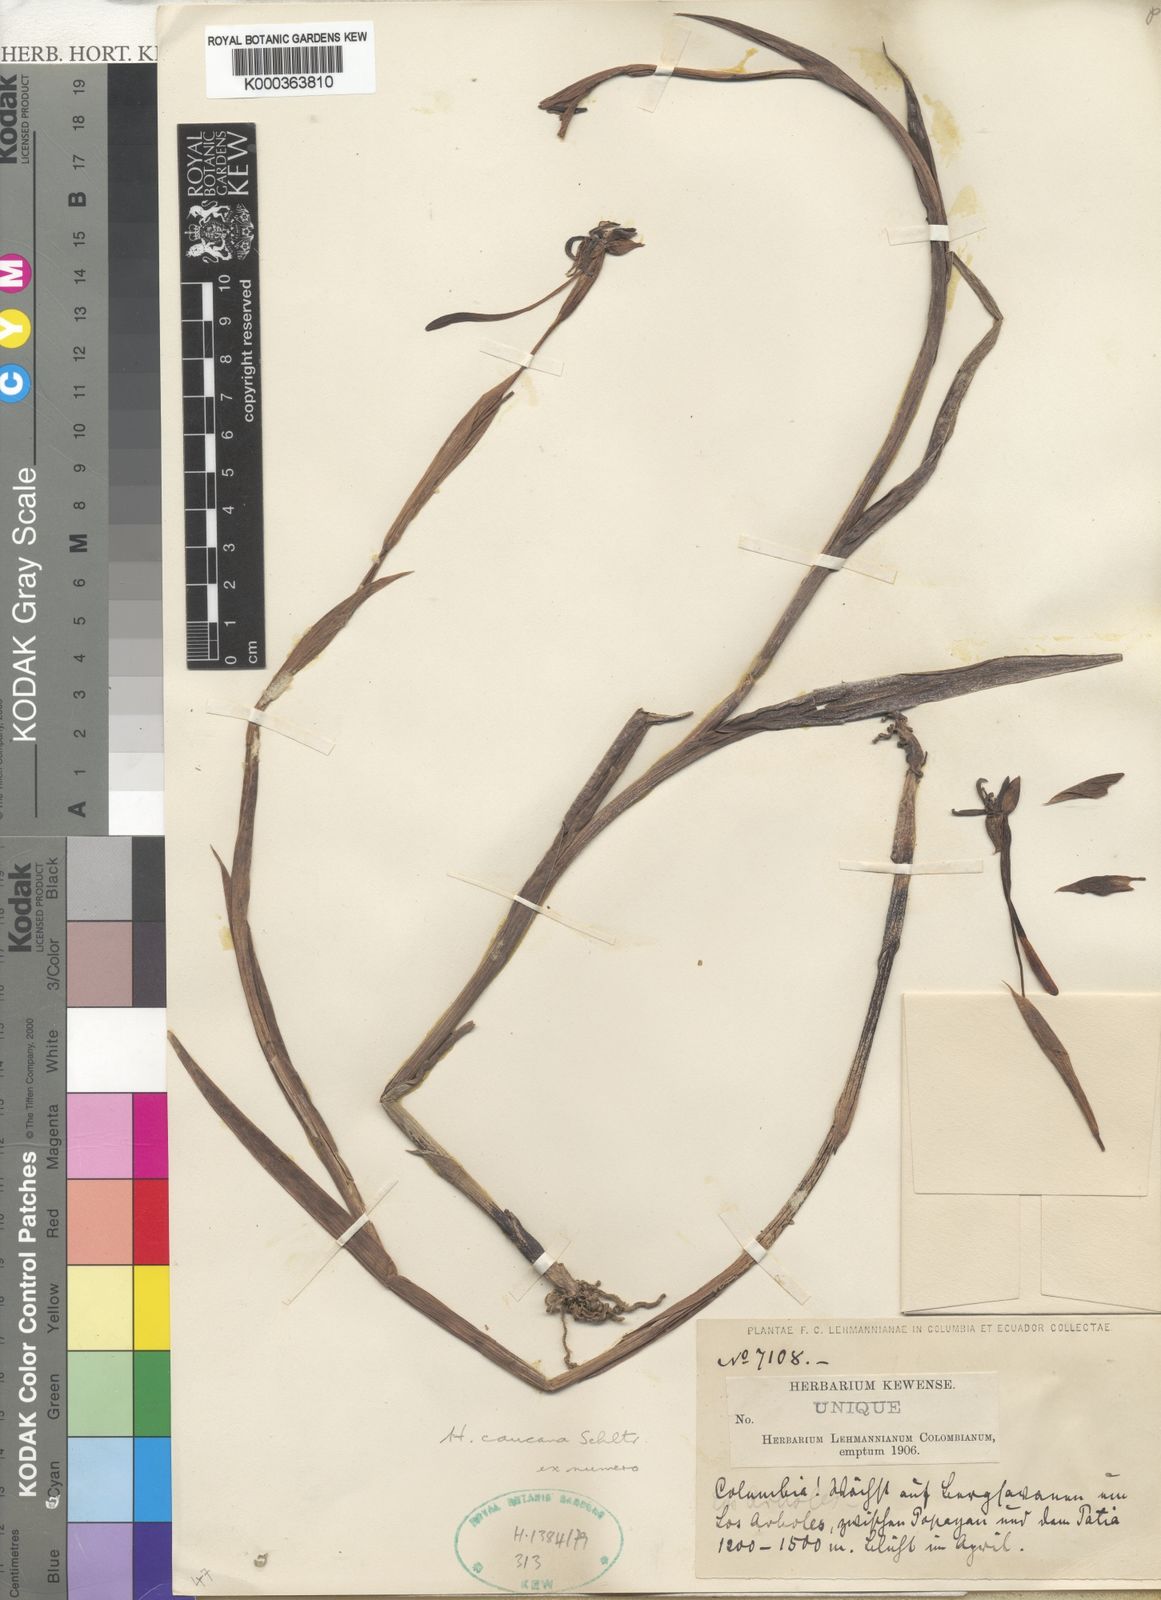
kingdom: Plantae
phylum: Tracheophyta
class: Liliopsida
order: Asparagales
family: Orchidaceae
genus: Habenaria
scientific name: Habenaria caucana
